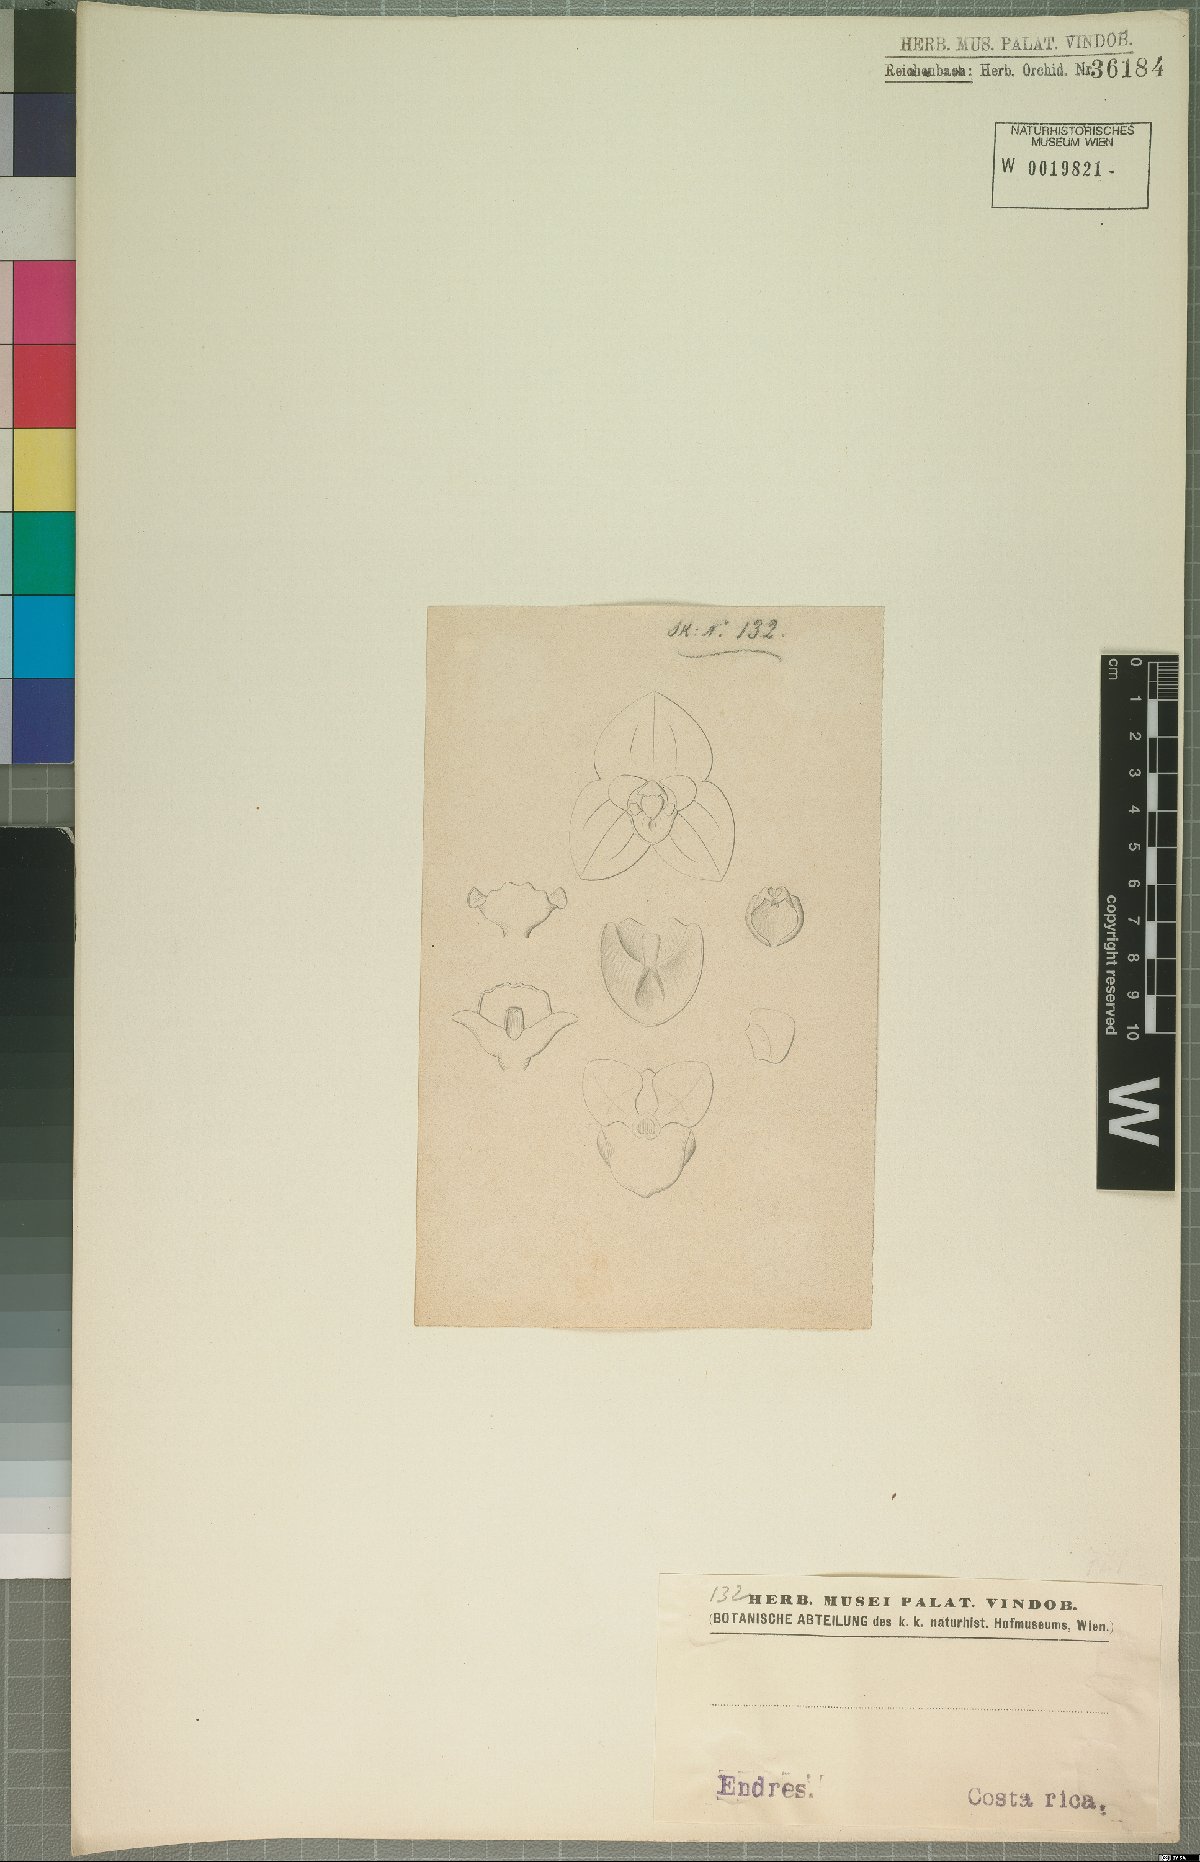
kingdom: Plantae
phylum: Tracheophyta
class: Liliopsida
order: Asparagales
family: Orchidaceae
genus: Stelis
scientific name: Stelis
